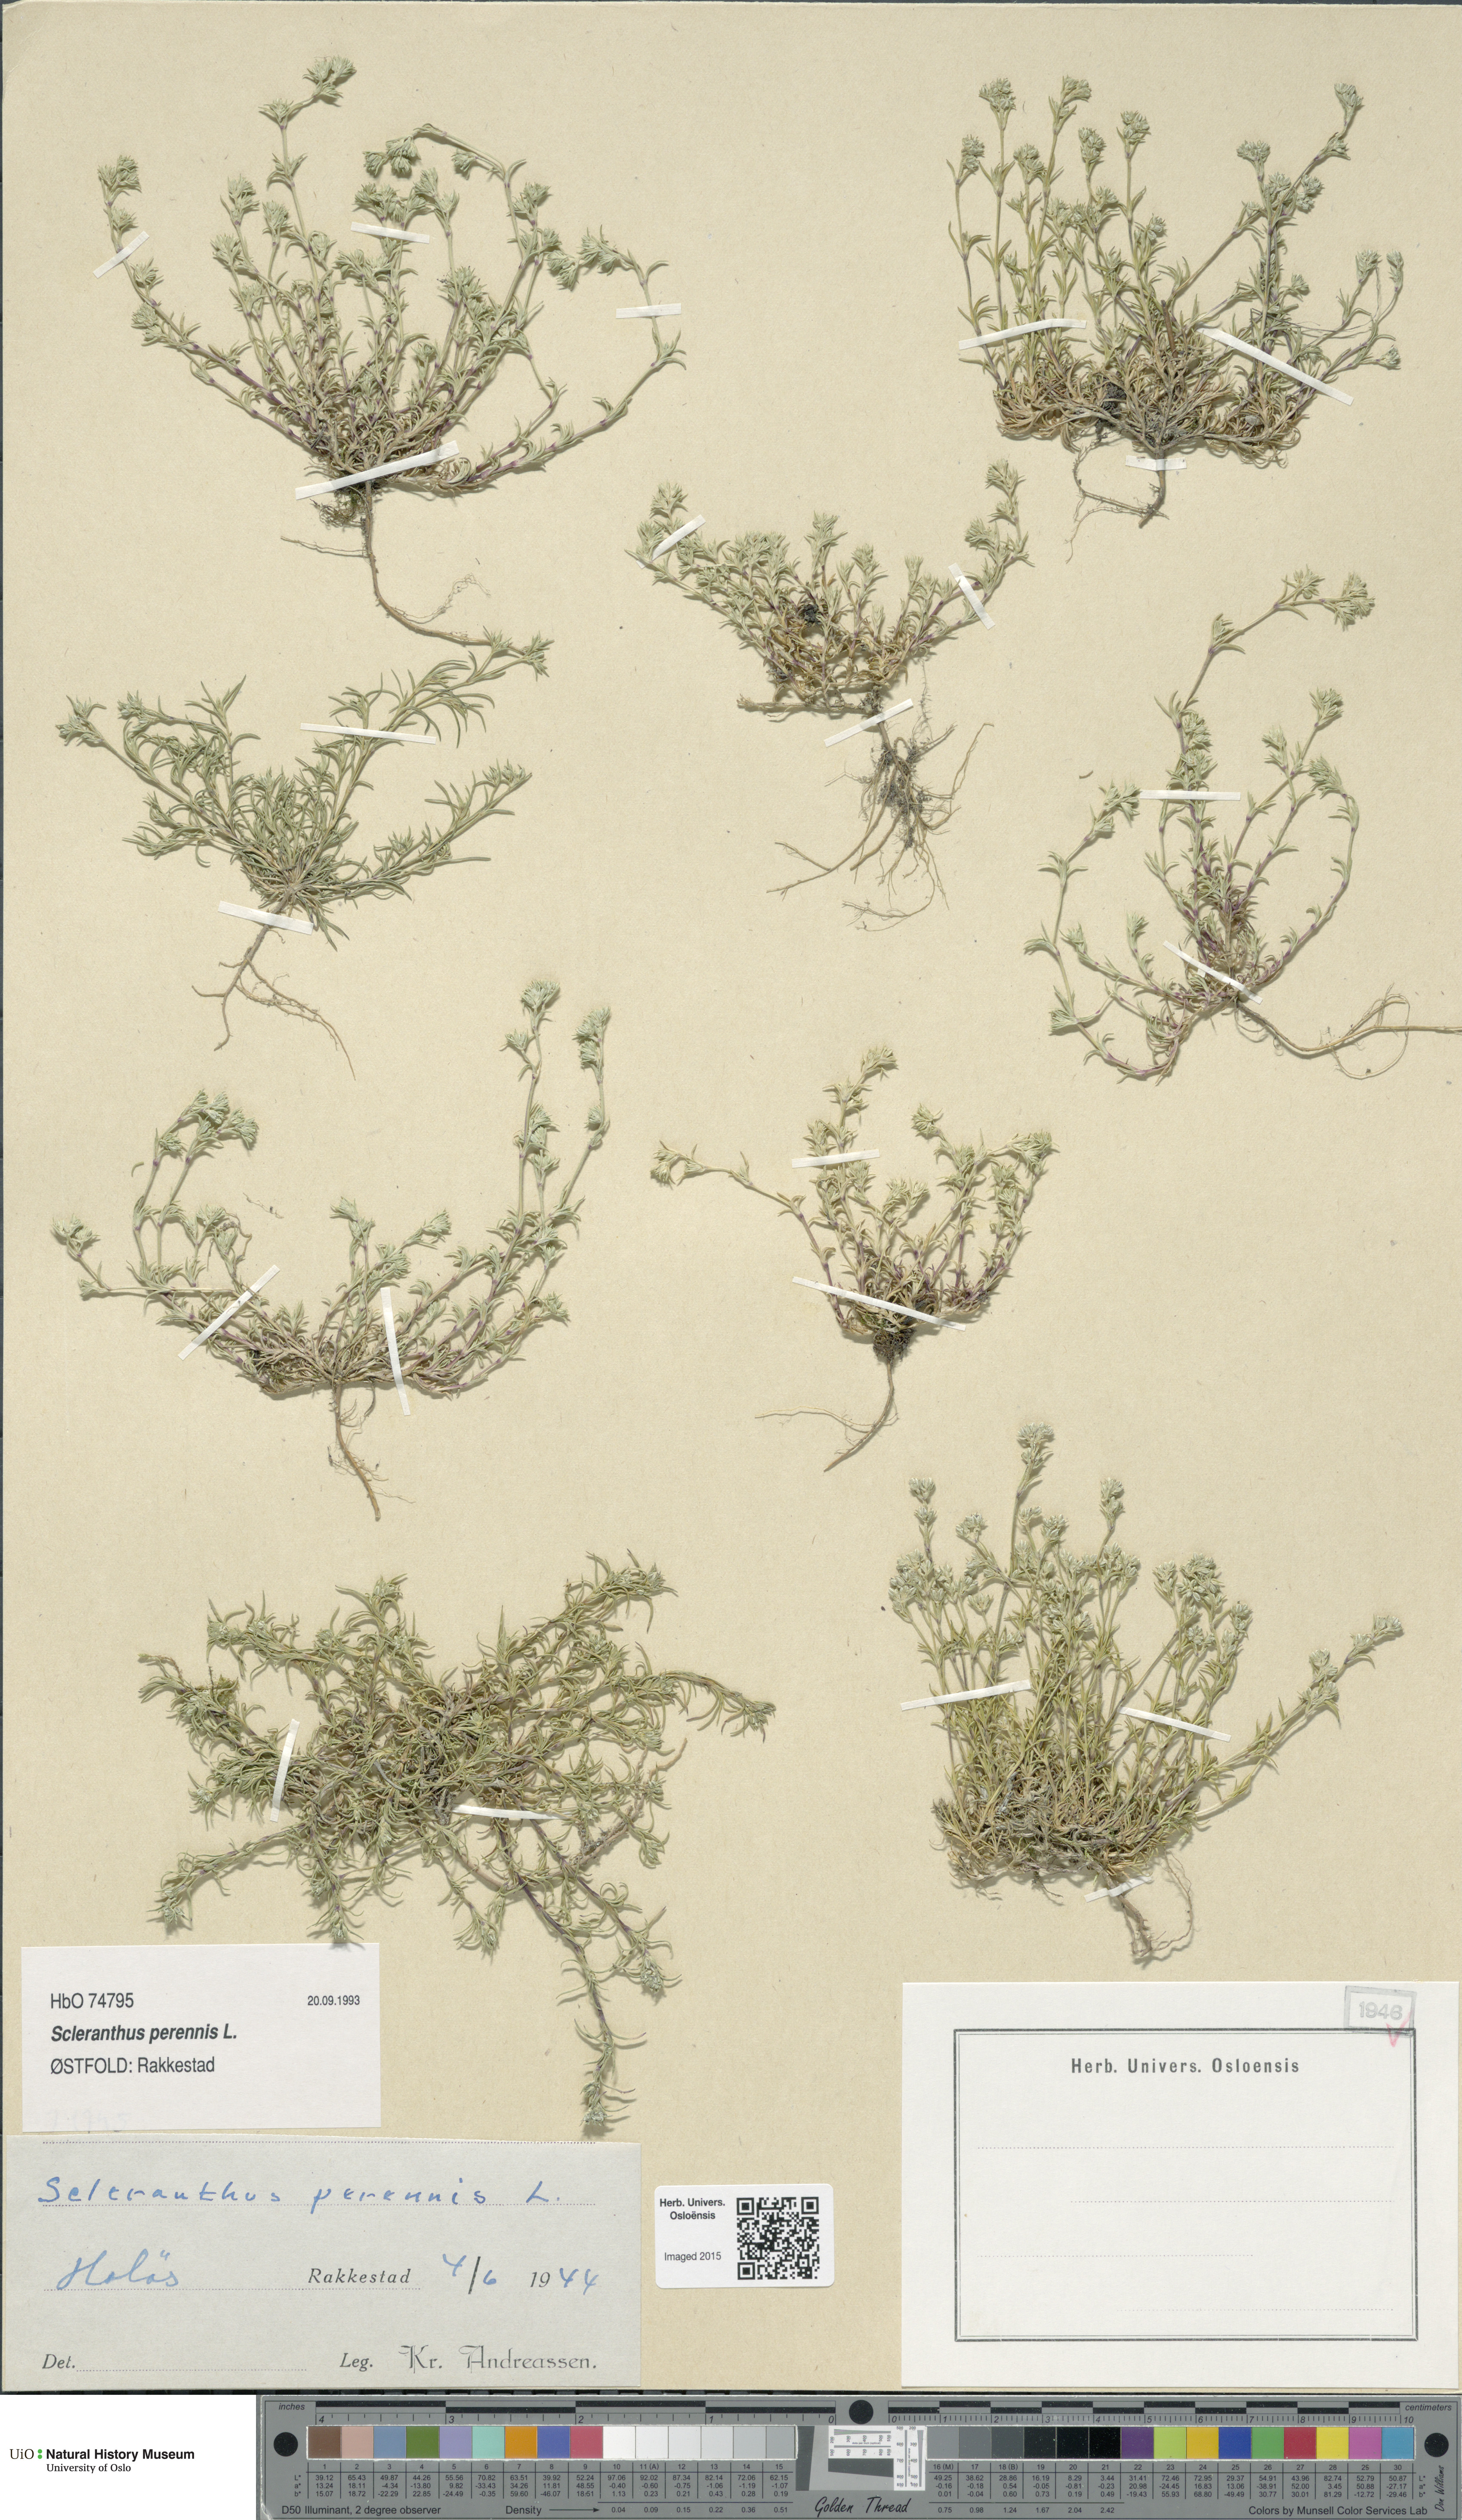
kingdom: Plantae
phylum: Tracheophyta
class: Magnoliopsida
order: Caryophyllales
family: Caryophyllaceae
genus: Scleranthus
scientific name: Scleranthus perennis
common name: Perennial knawel
